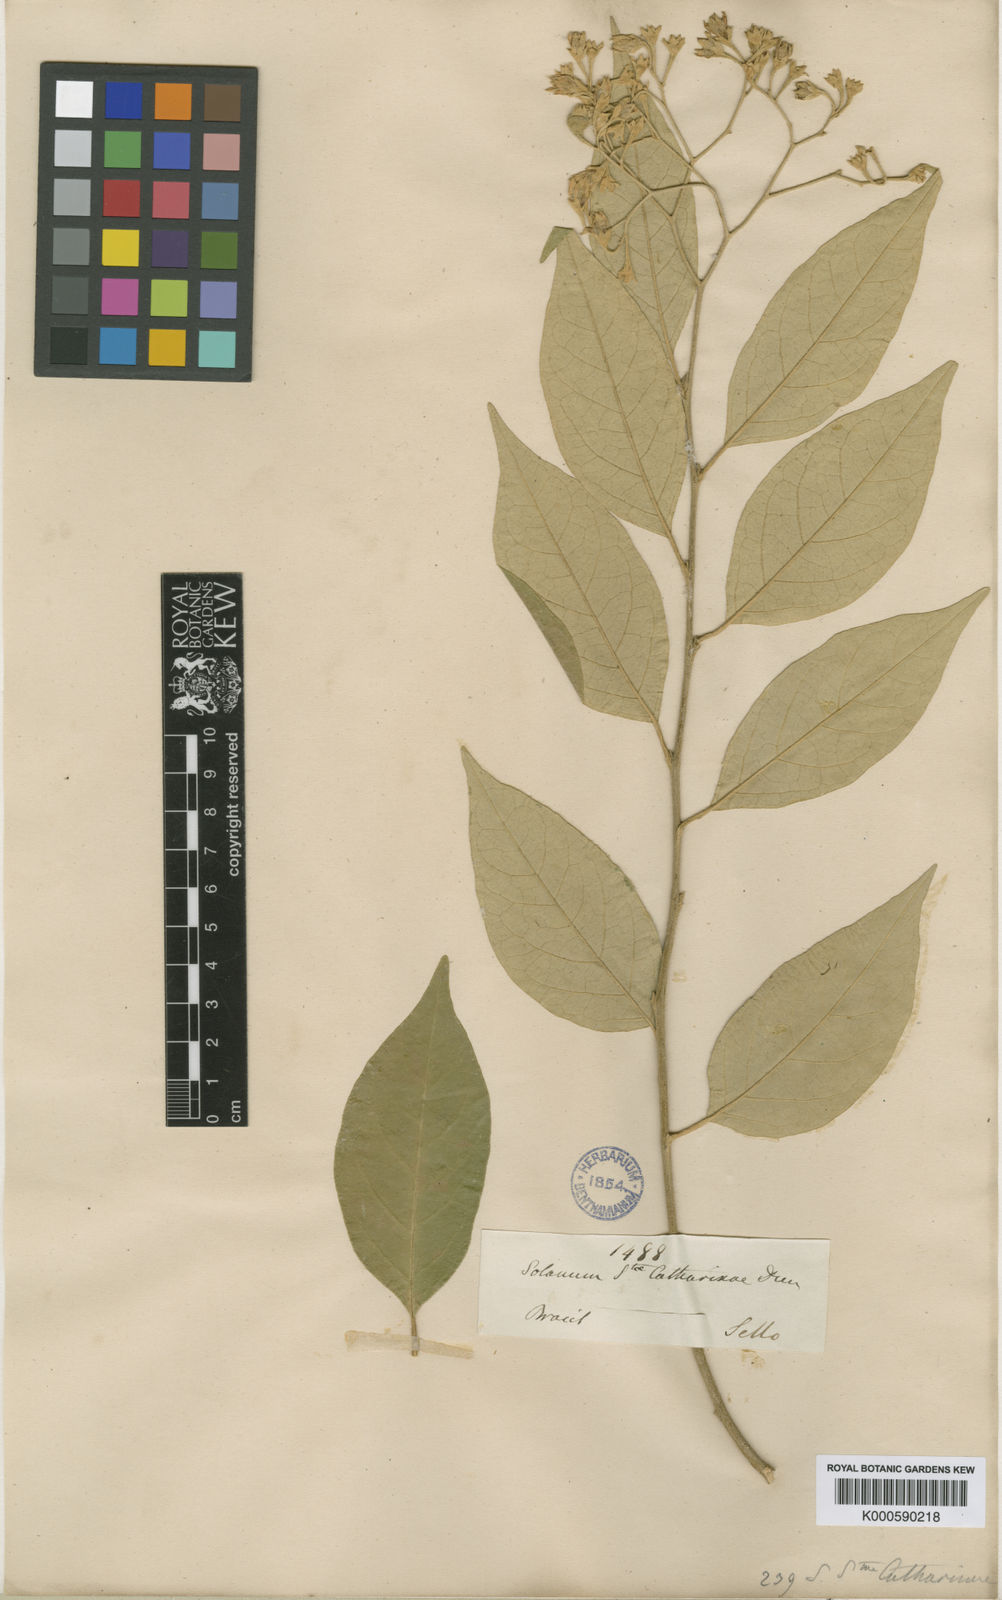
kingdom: Plantae
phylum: Tracheophyta
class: Magnoliopsida
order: Solanales
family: Solanaceae
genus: Solanum
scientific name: Solanum sanctae-catharinae
